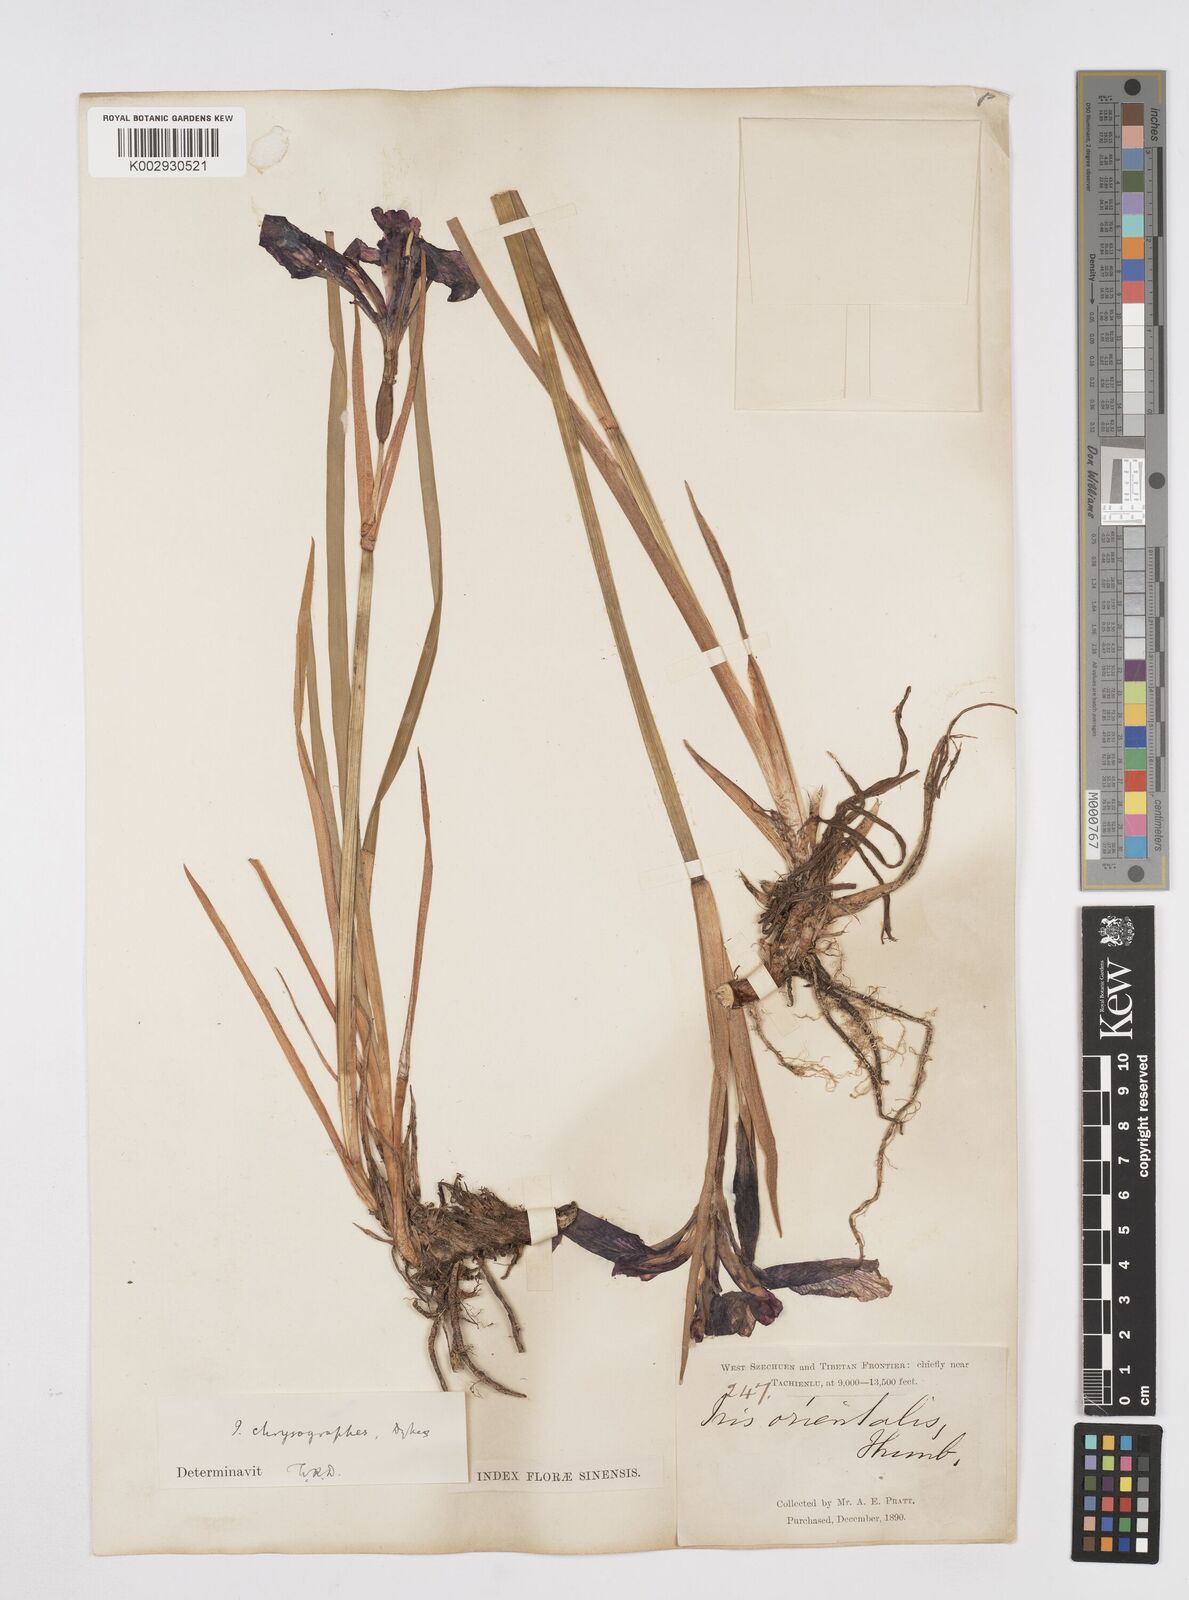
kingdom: Plantae
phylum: Tracheophyta
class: Liliopsida
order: Asparagales
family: Iridaceae
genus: Iris
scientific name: Iris chrysographes
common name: Gold-vein iris
